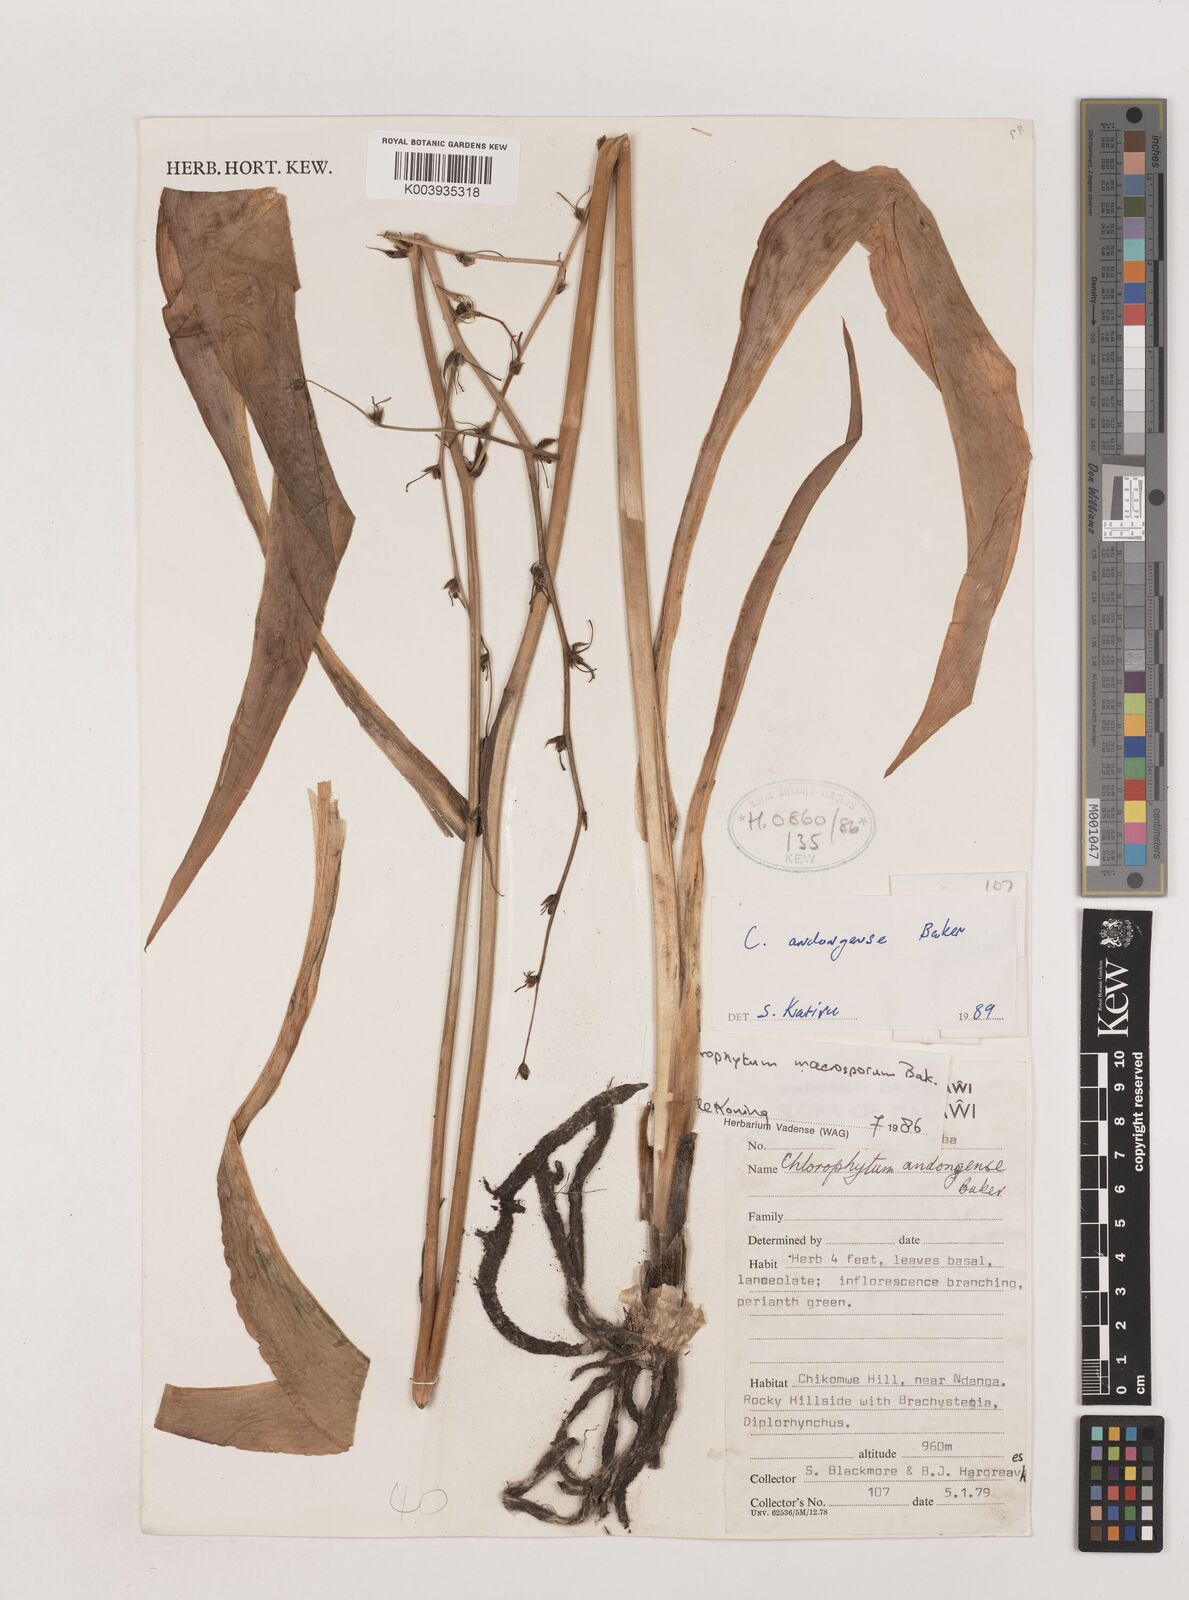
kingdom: Plantae
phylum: Tracheophyta
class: Liliopsida
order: Asparagales
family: Asparagaceae
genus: Chlorophytum
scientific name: Chlorophytum andongense
